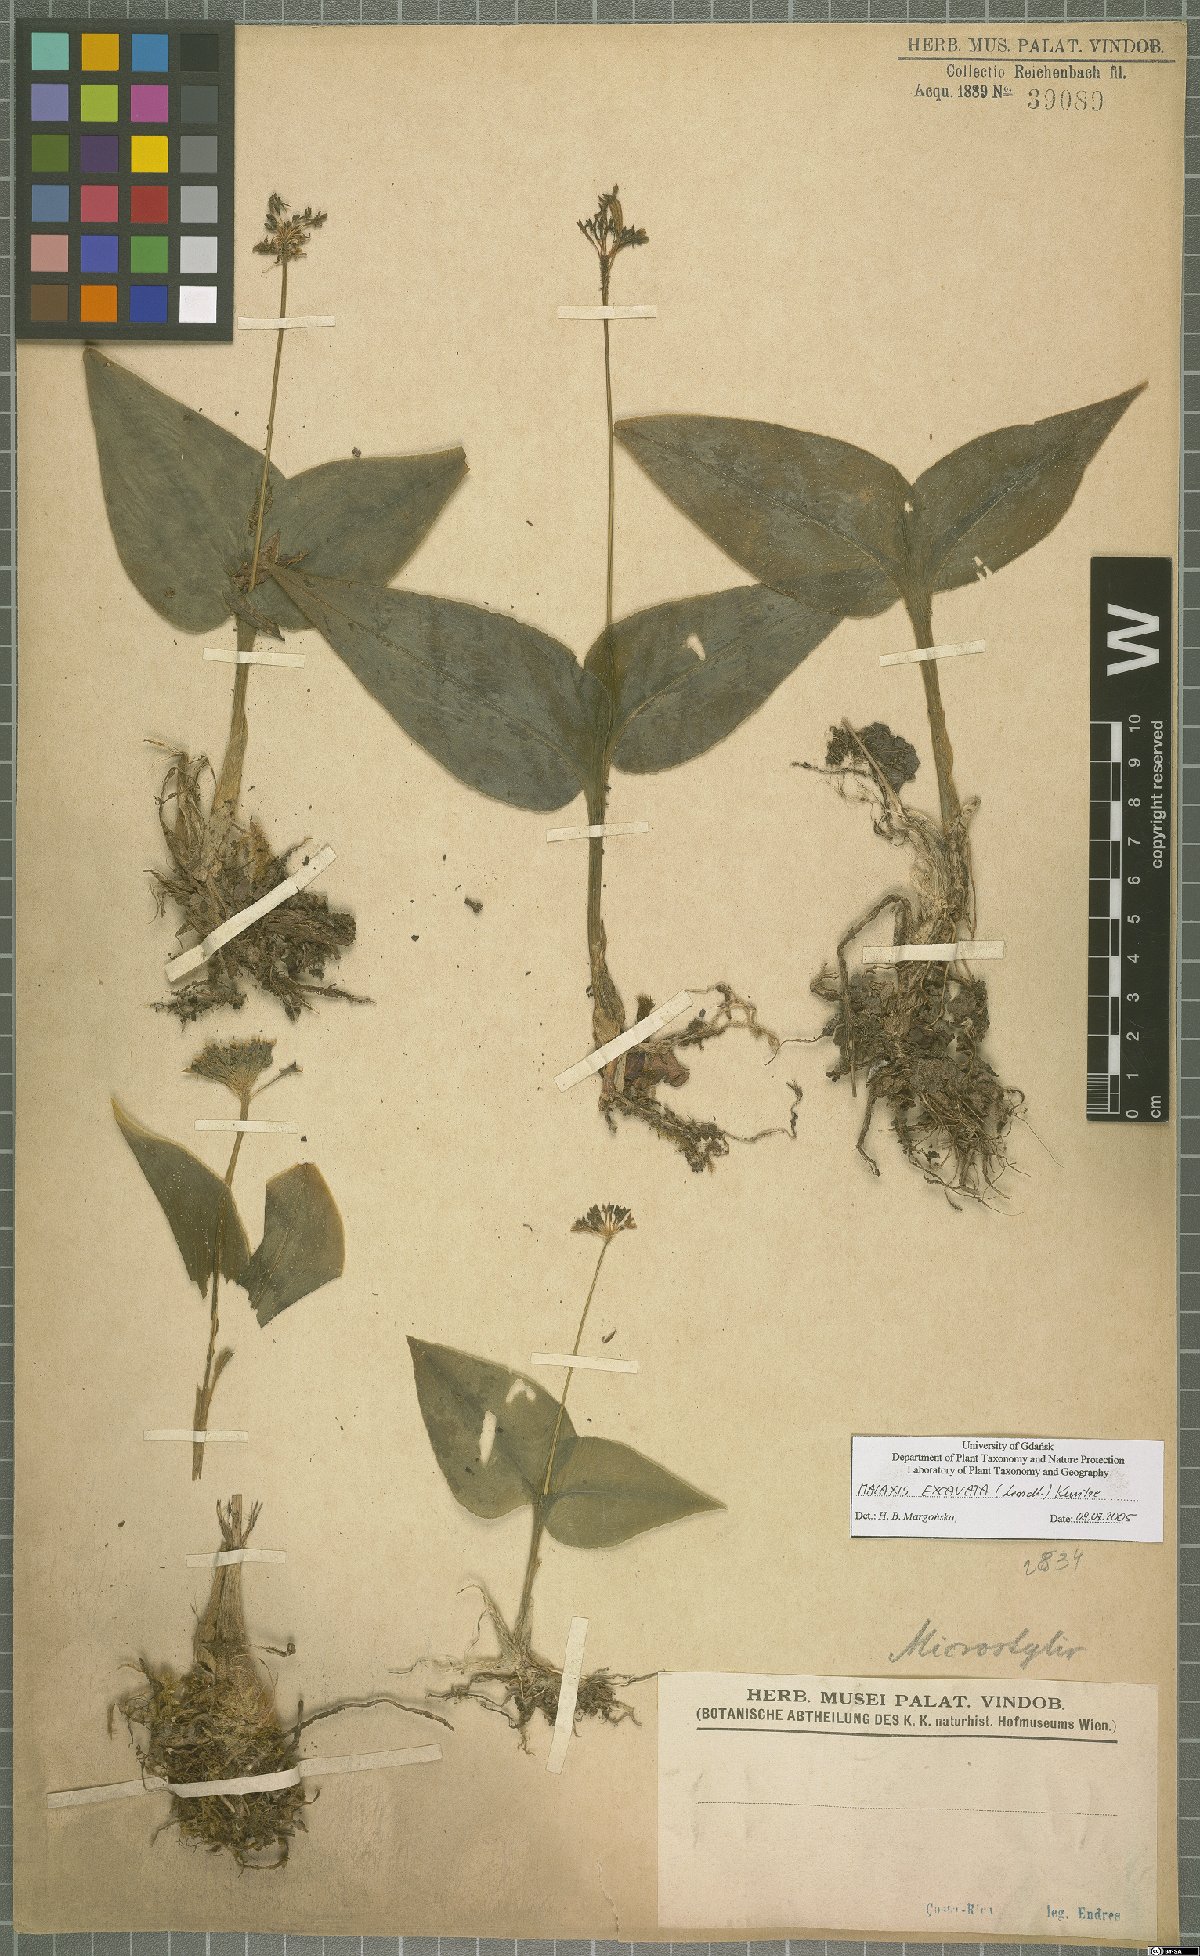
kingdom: Plantae
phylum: Tracheophyta
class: Liliopsida
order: Asparagales
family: Orchidaceae
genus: Malaxis
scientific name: Malaxis excavata
